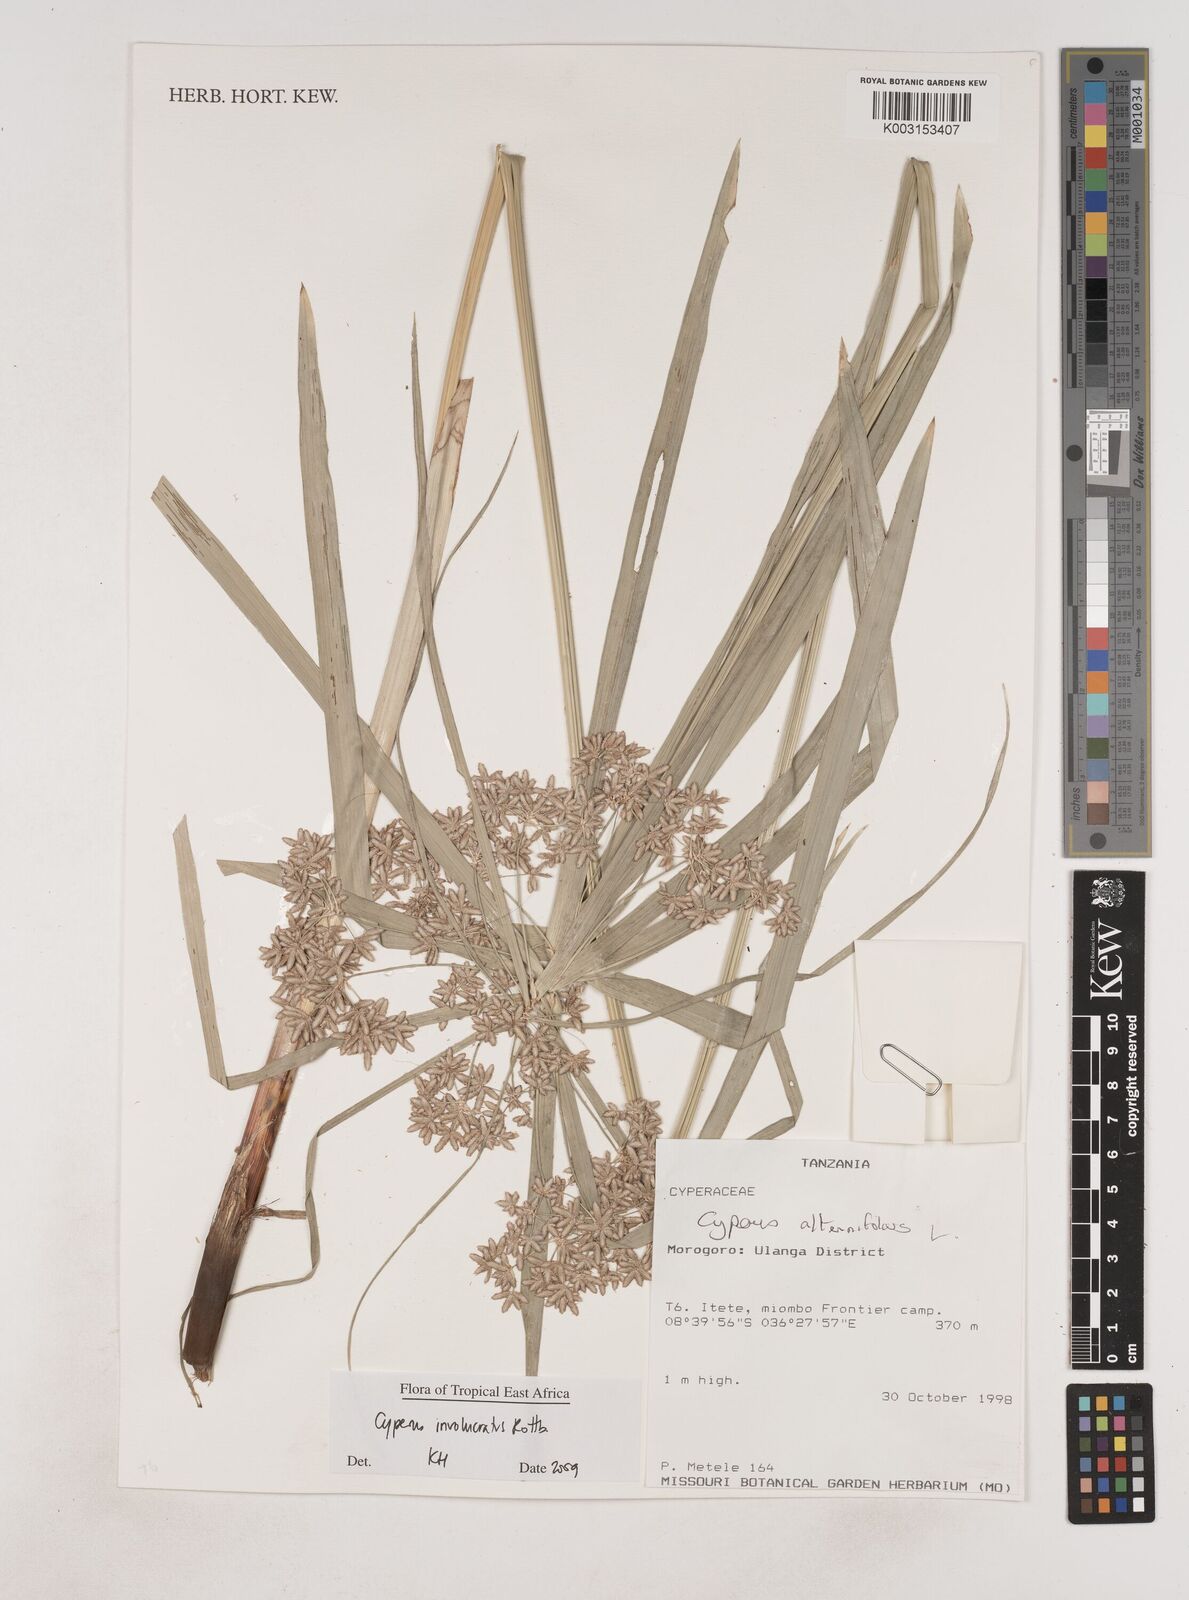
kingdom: Plantae
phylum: Tracheophyta
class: Liliopsida
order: Poales
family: Cyperaceae
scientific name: Cyperaceae
